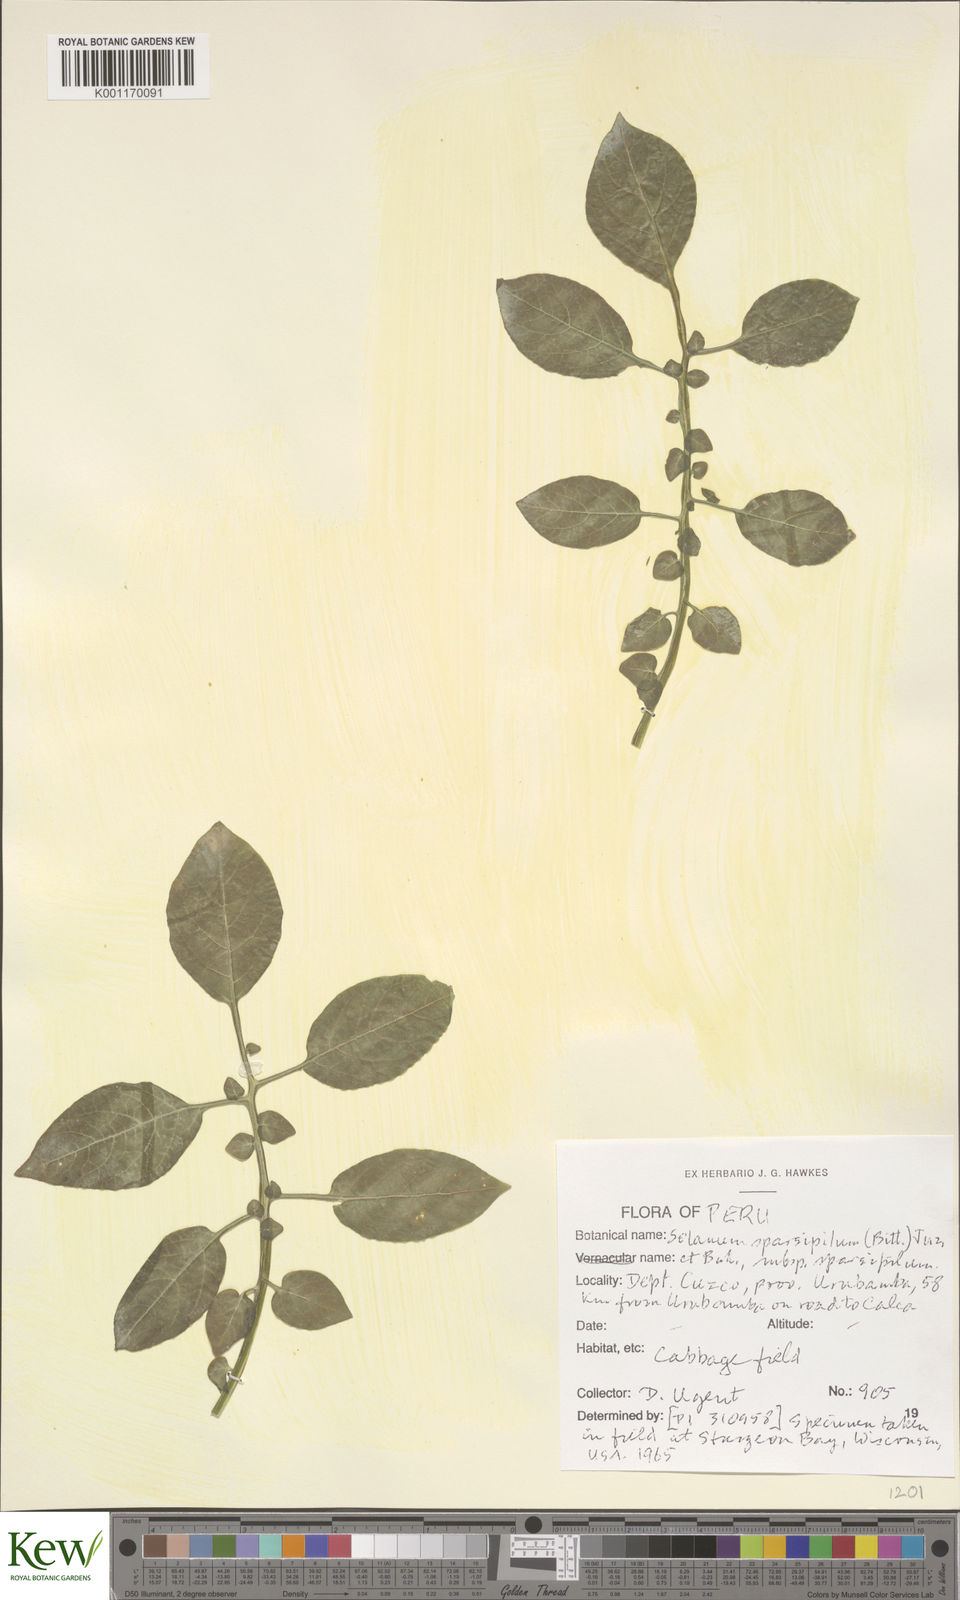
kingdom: Plantae
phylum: Tracheophyta
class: Magnoliopsida
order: Solanales
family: Solanaceae
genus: Solanum
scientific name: Solanum brevicaule
